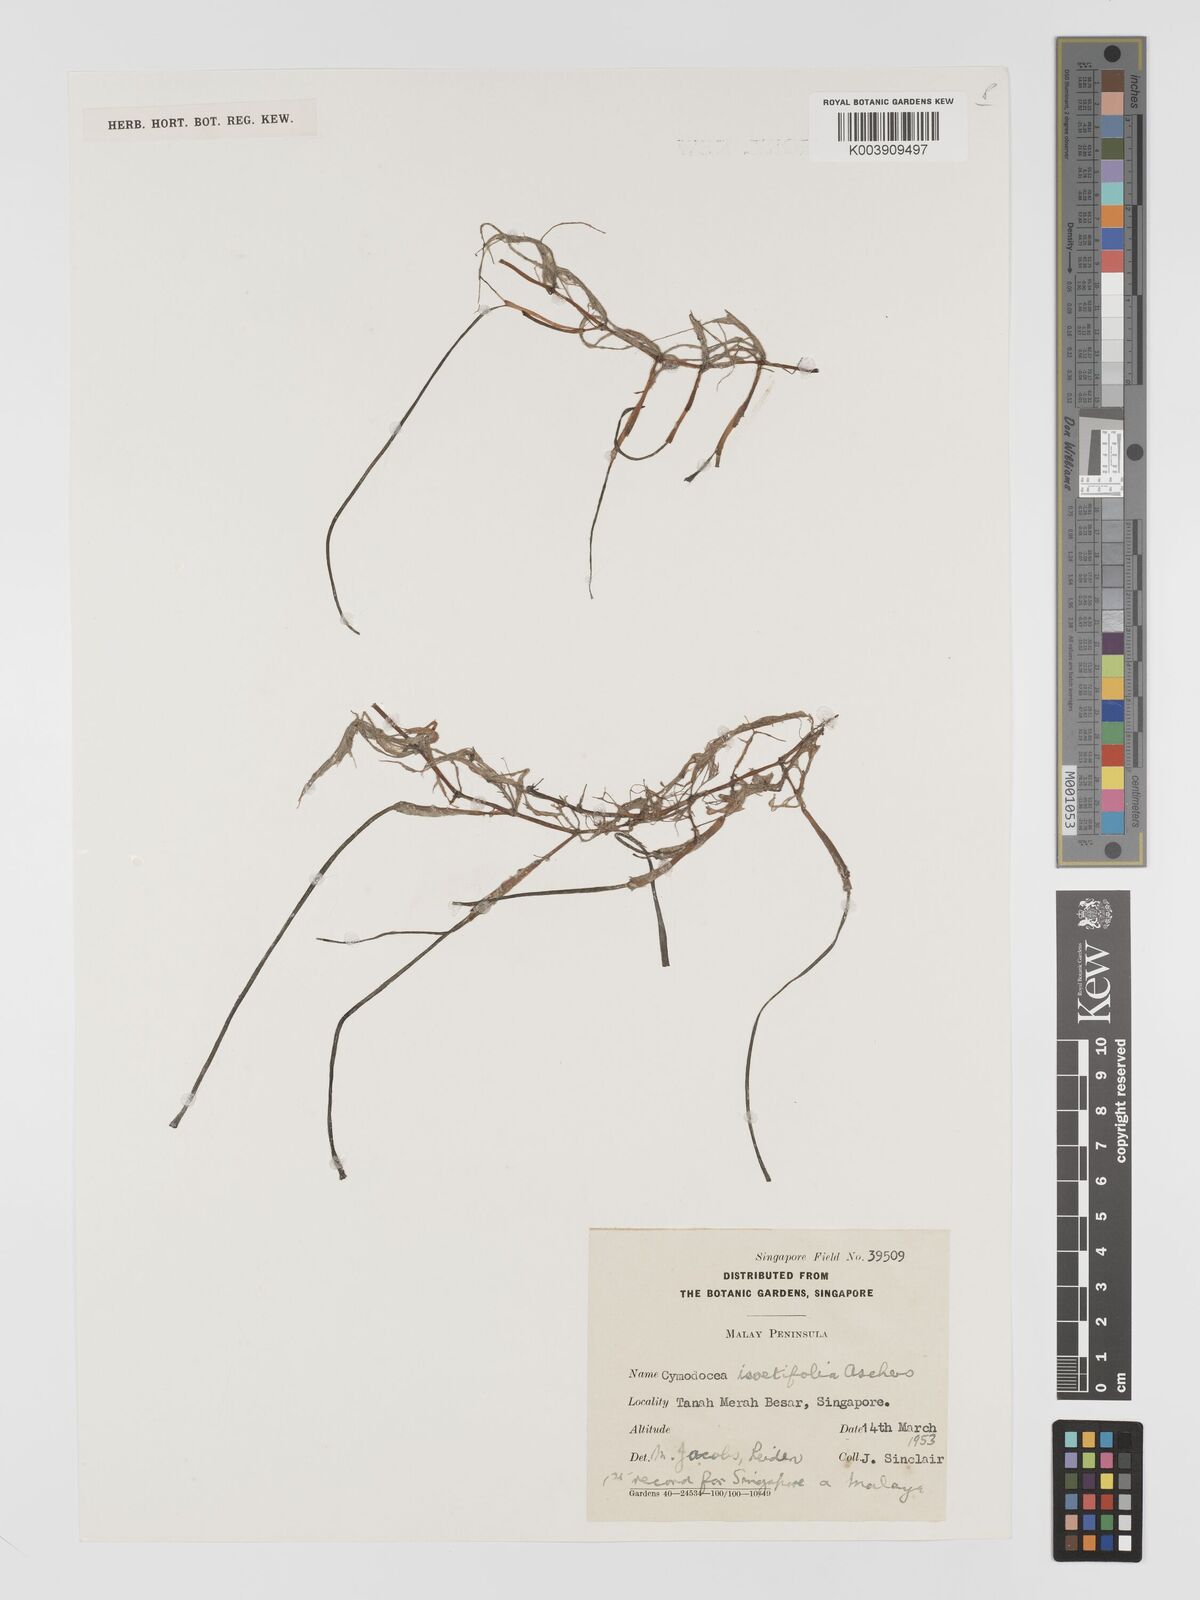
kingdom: Plantae
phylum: Tracheophyta
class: Liliopsida
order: Alismatales
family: Cymodoceaceae
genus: Syringodium
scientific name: Syringodium isoetifolium
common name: Species code: si
